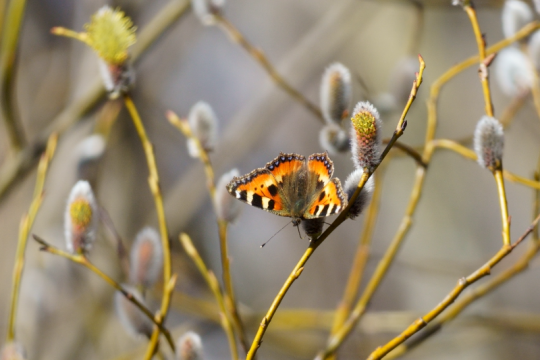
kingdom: Animalia
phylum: Arthropoda
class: Insecta
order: Lepidoptera
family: Nymphalidae
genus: Aglais
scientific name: Aglais urticae
